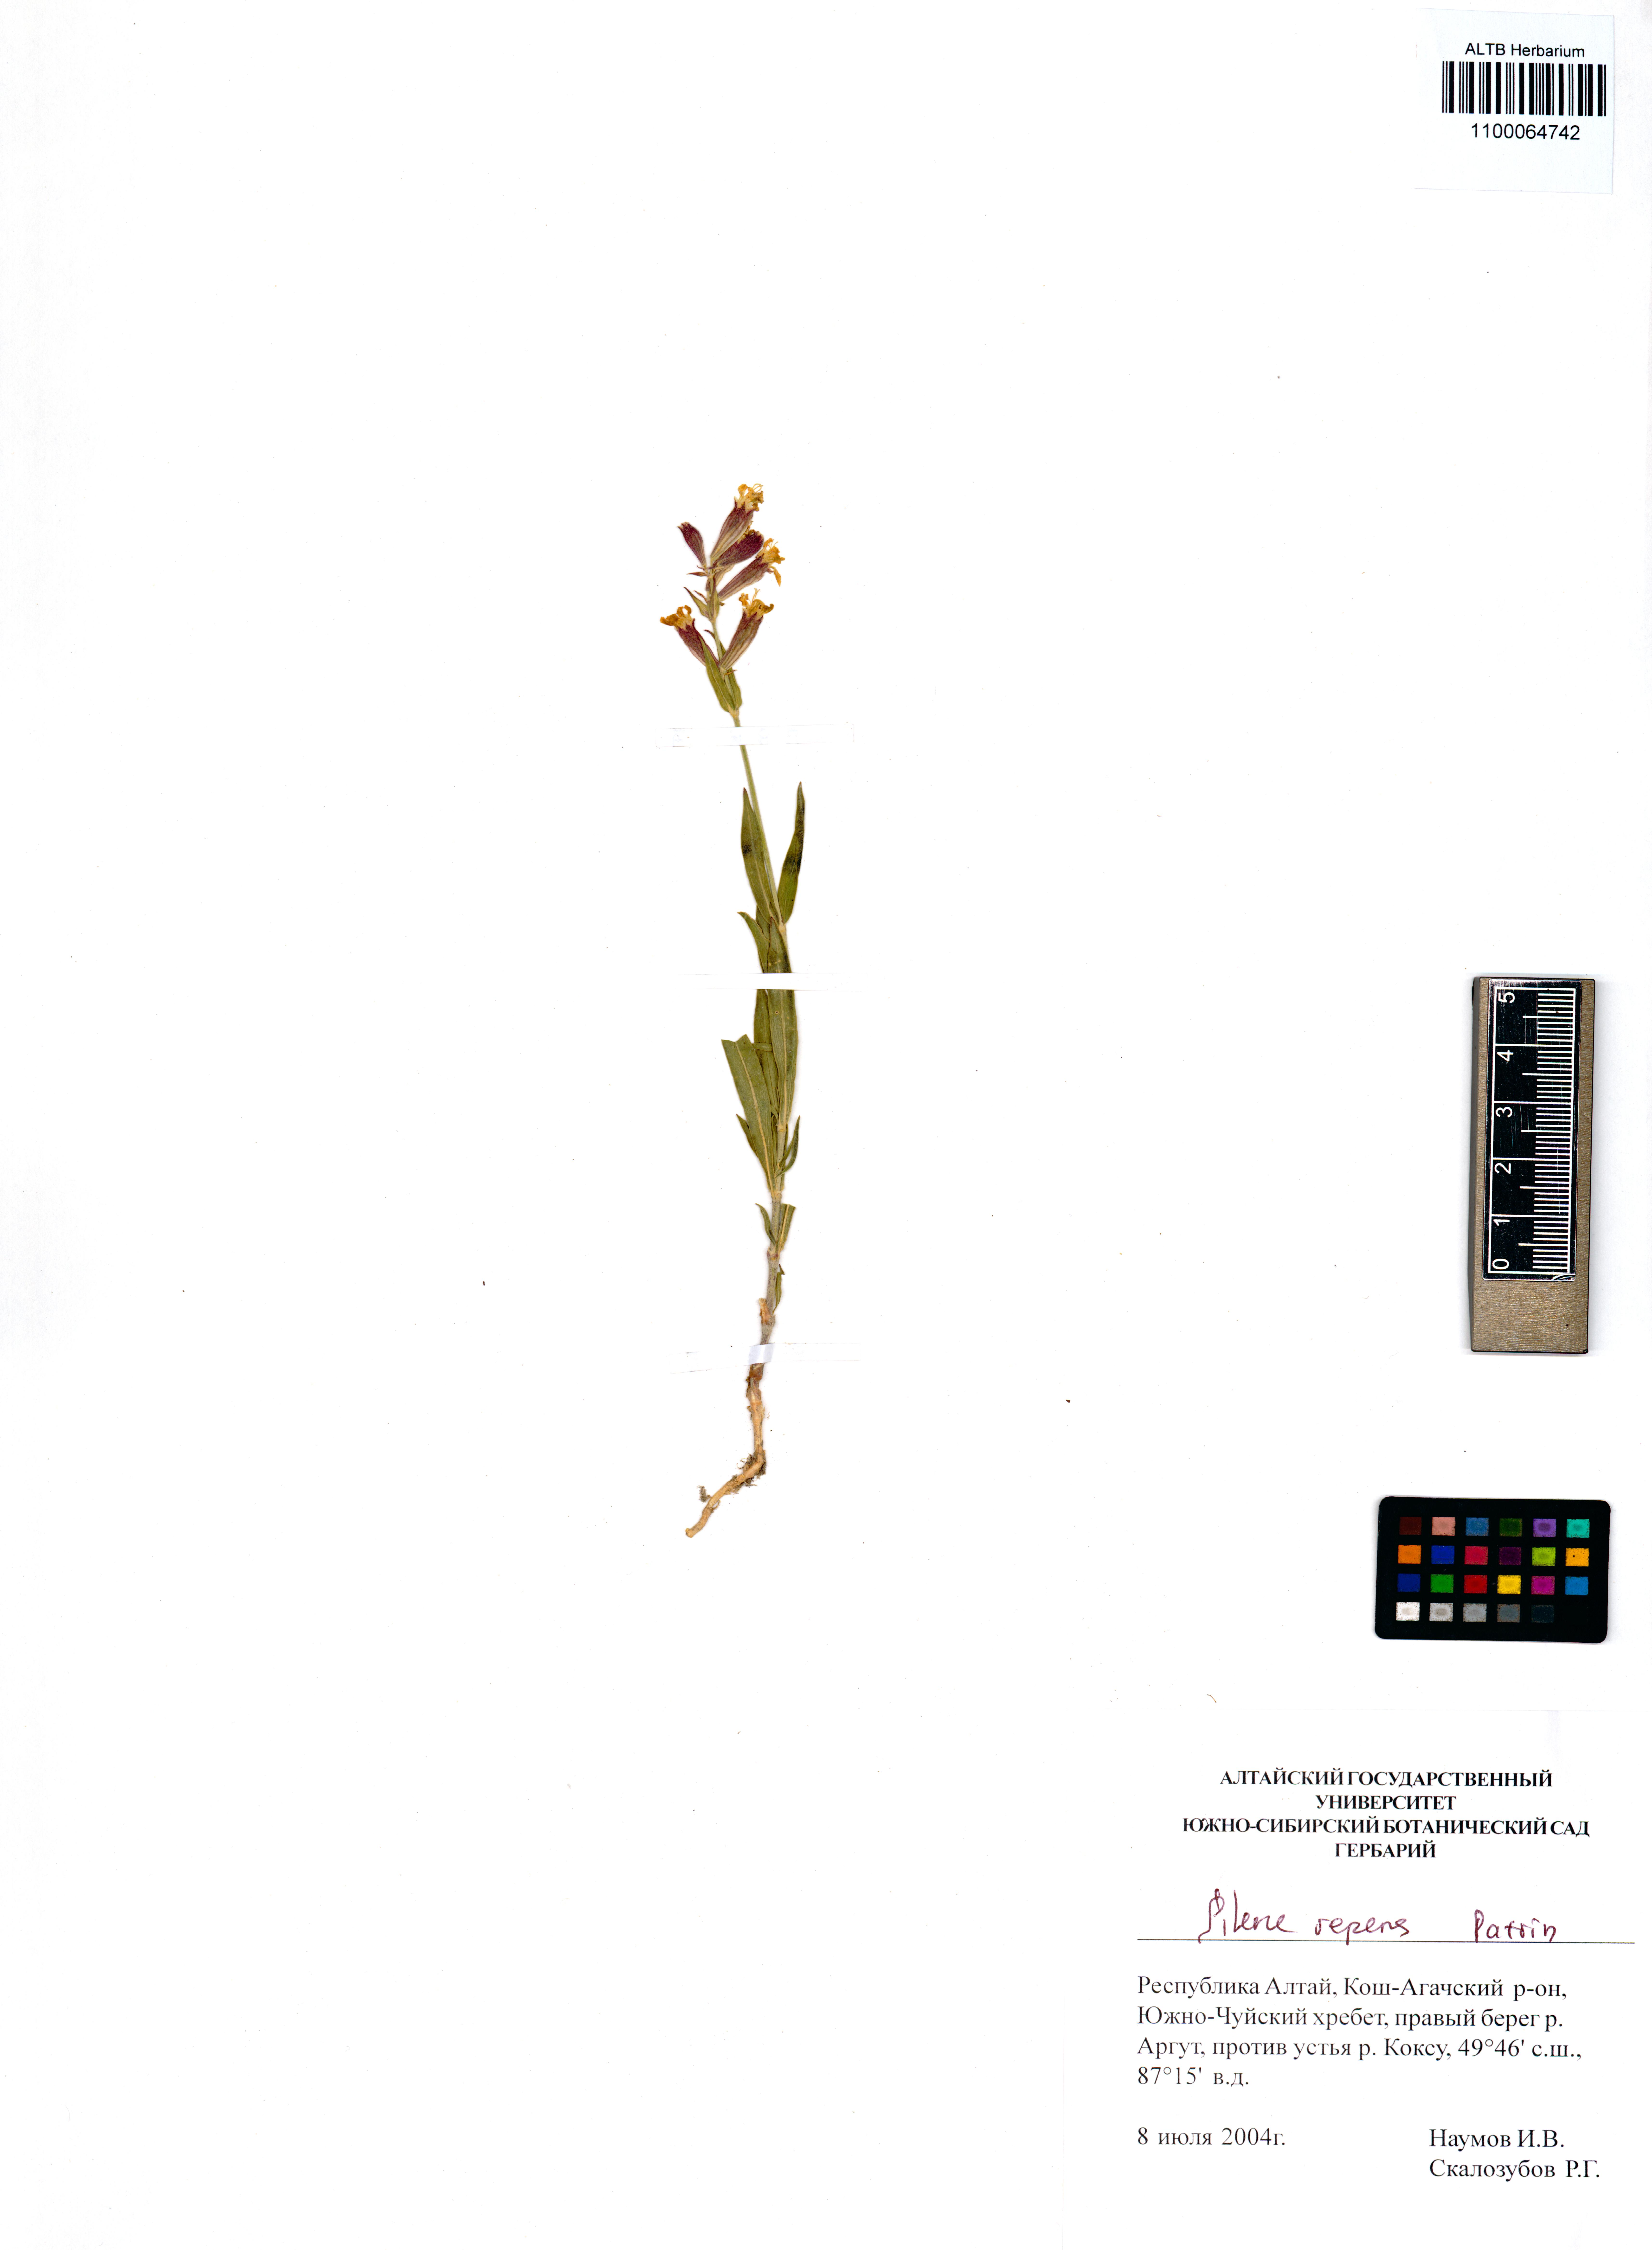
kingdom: Plantae
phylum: Tracheophyta
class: Magnoliopsida
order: Caryophyllales
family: Caryophyllaceae
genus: Silene
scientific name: Silene repens
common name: Pink campion
